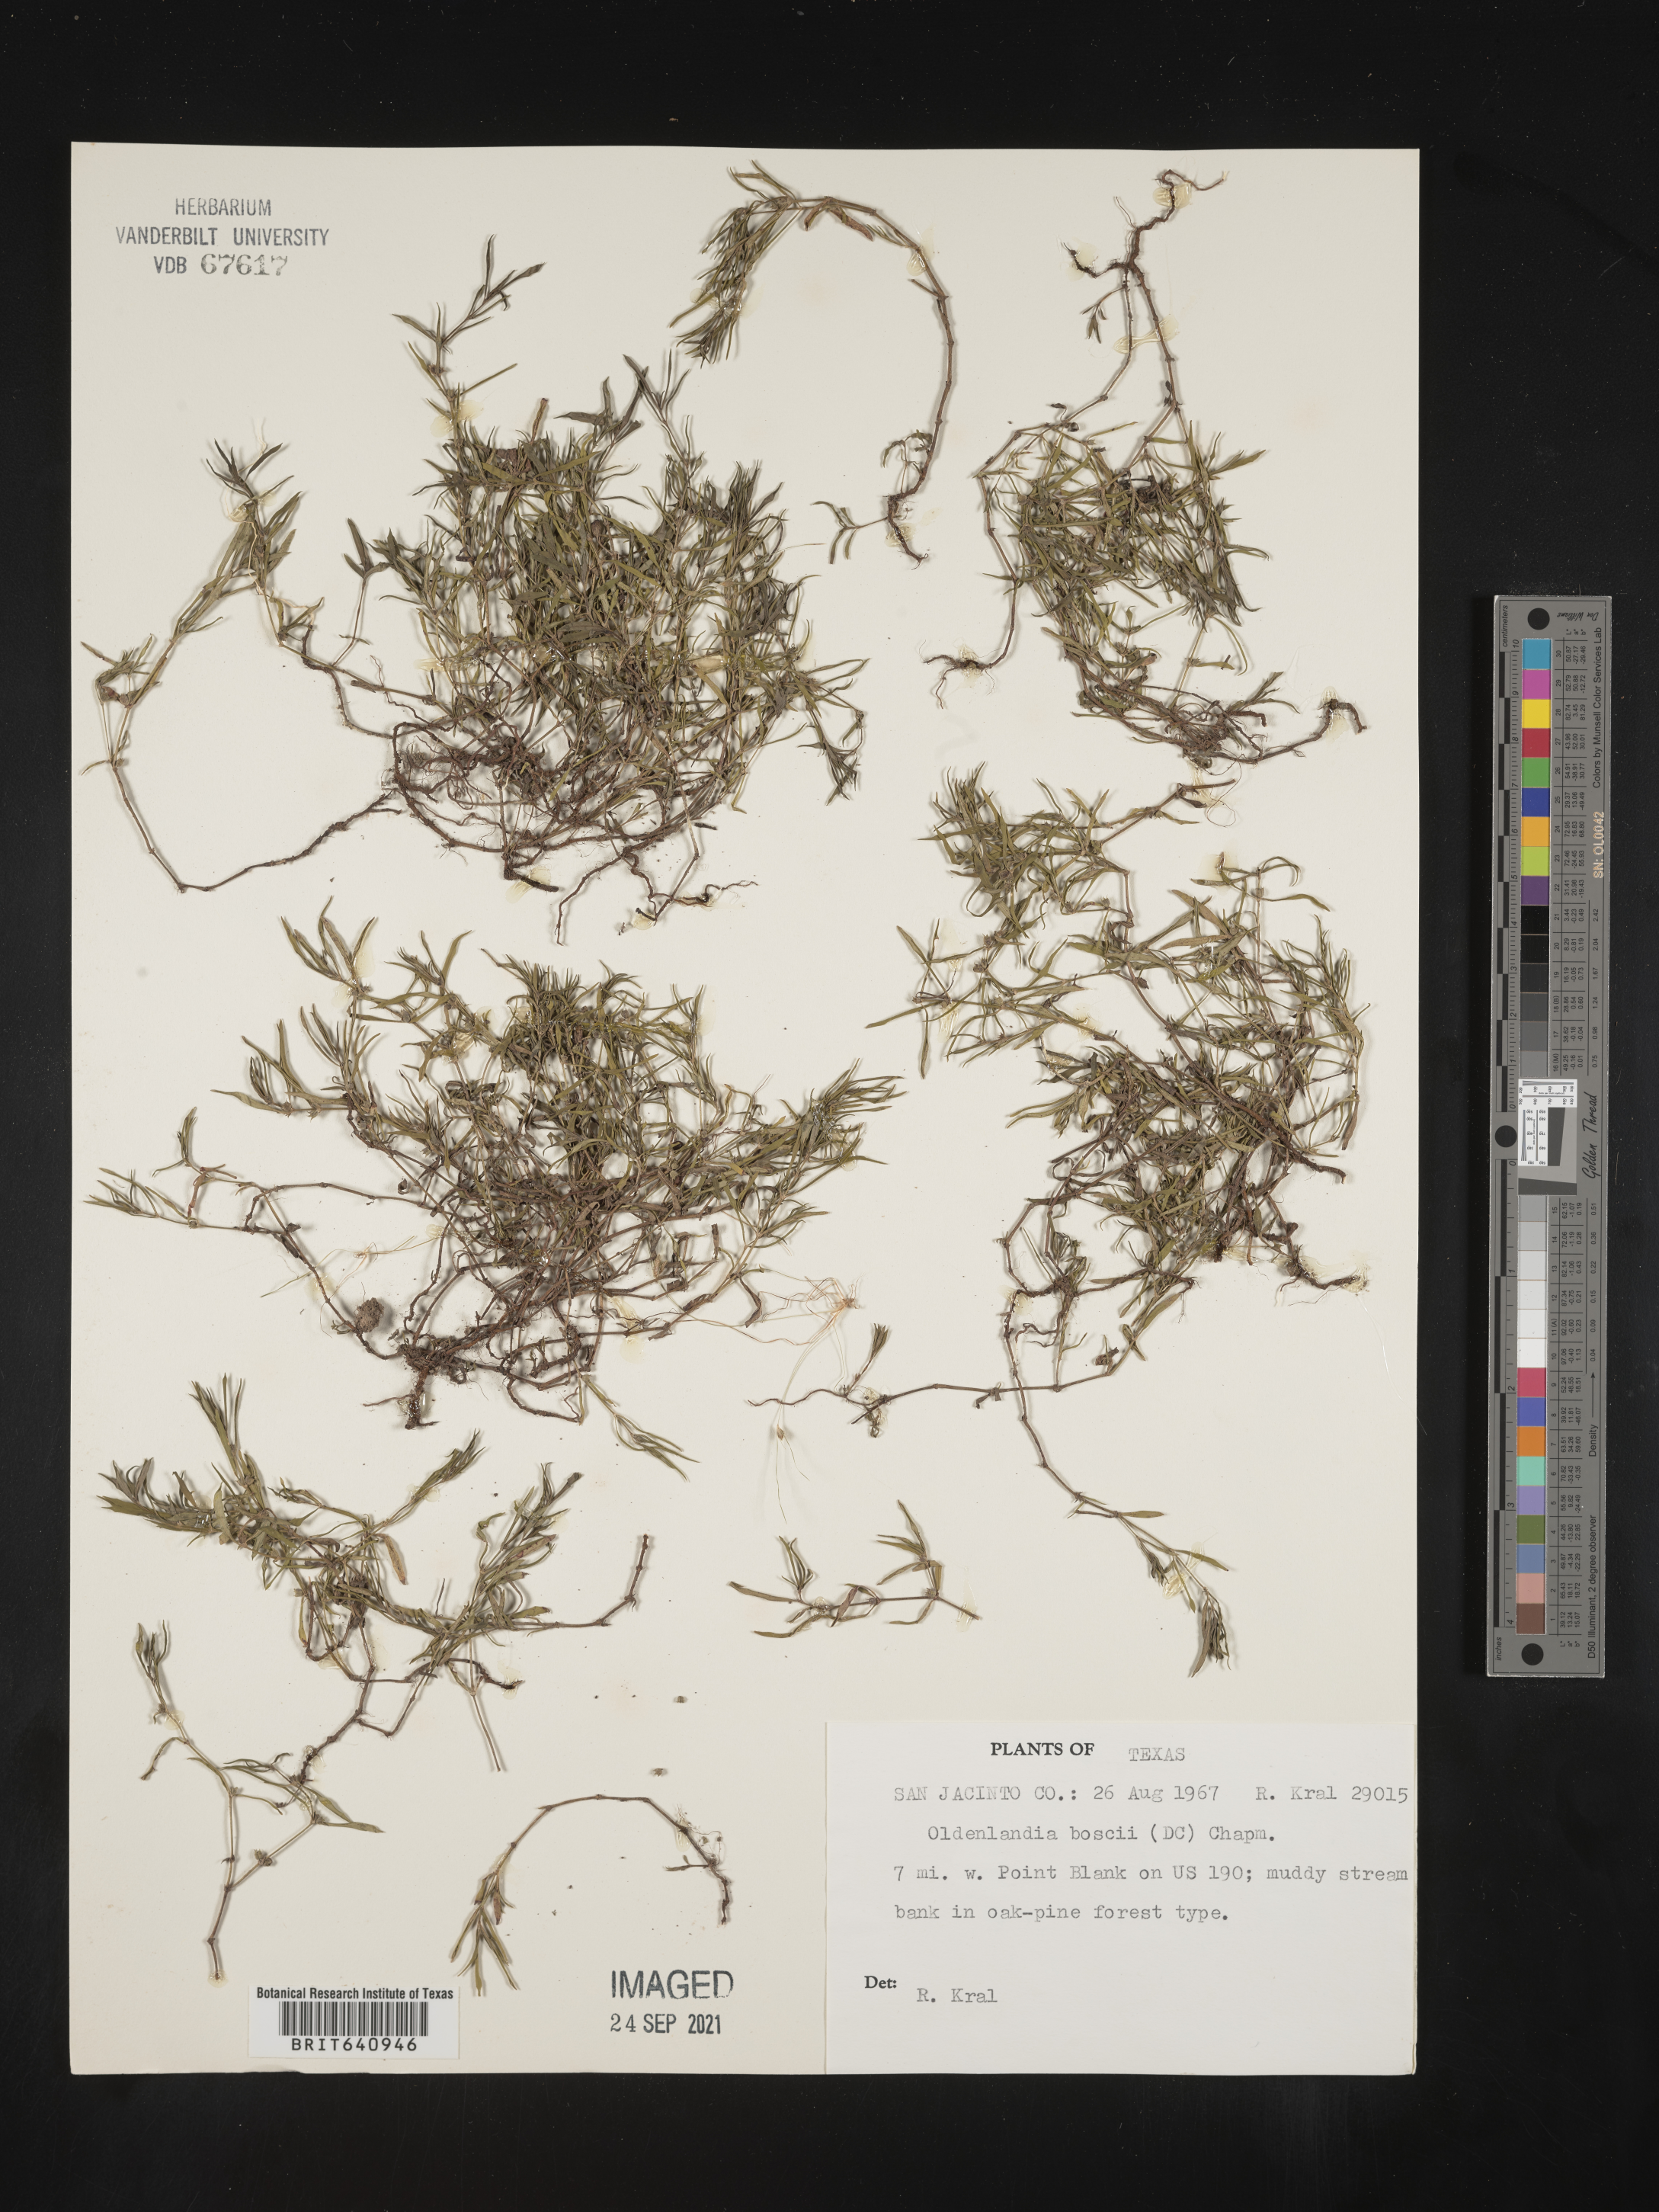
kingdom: Plantae
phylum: Tracheophyta
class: Magnoliopsida
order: Gentianales
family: Rubiaceae
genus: Oldenlandia
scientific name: Oldenlandia boscii
